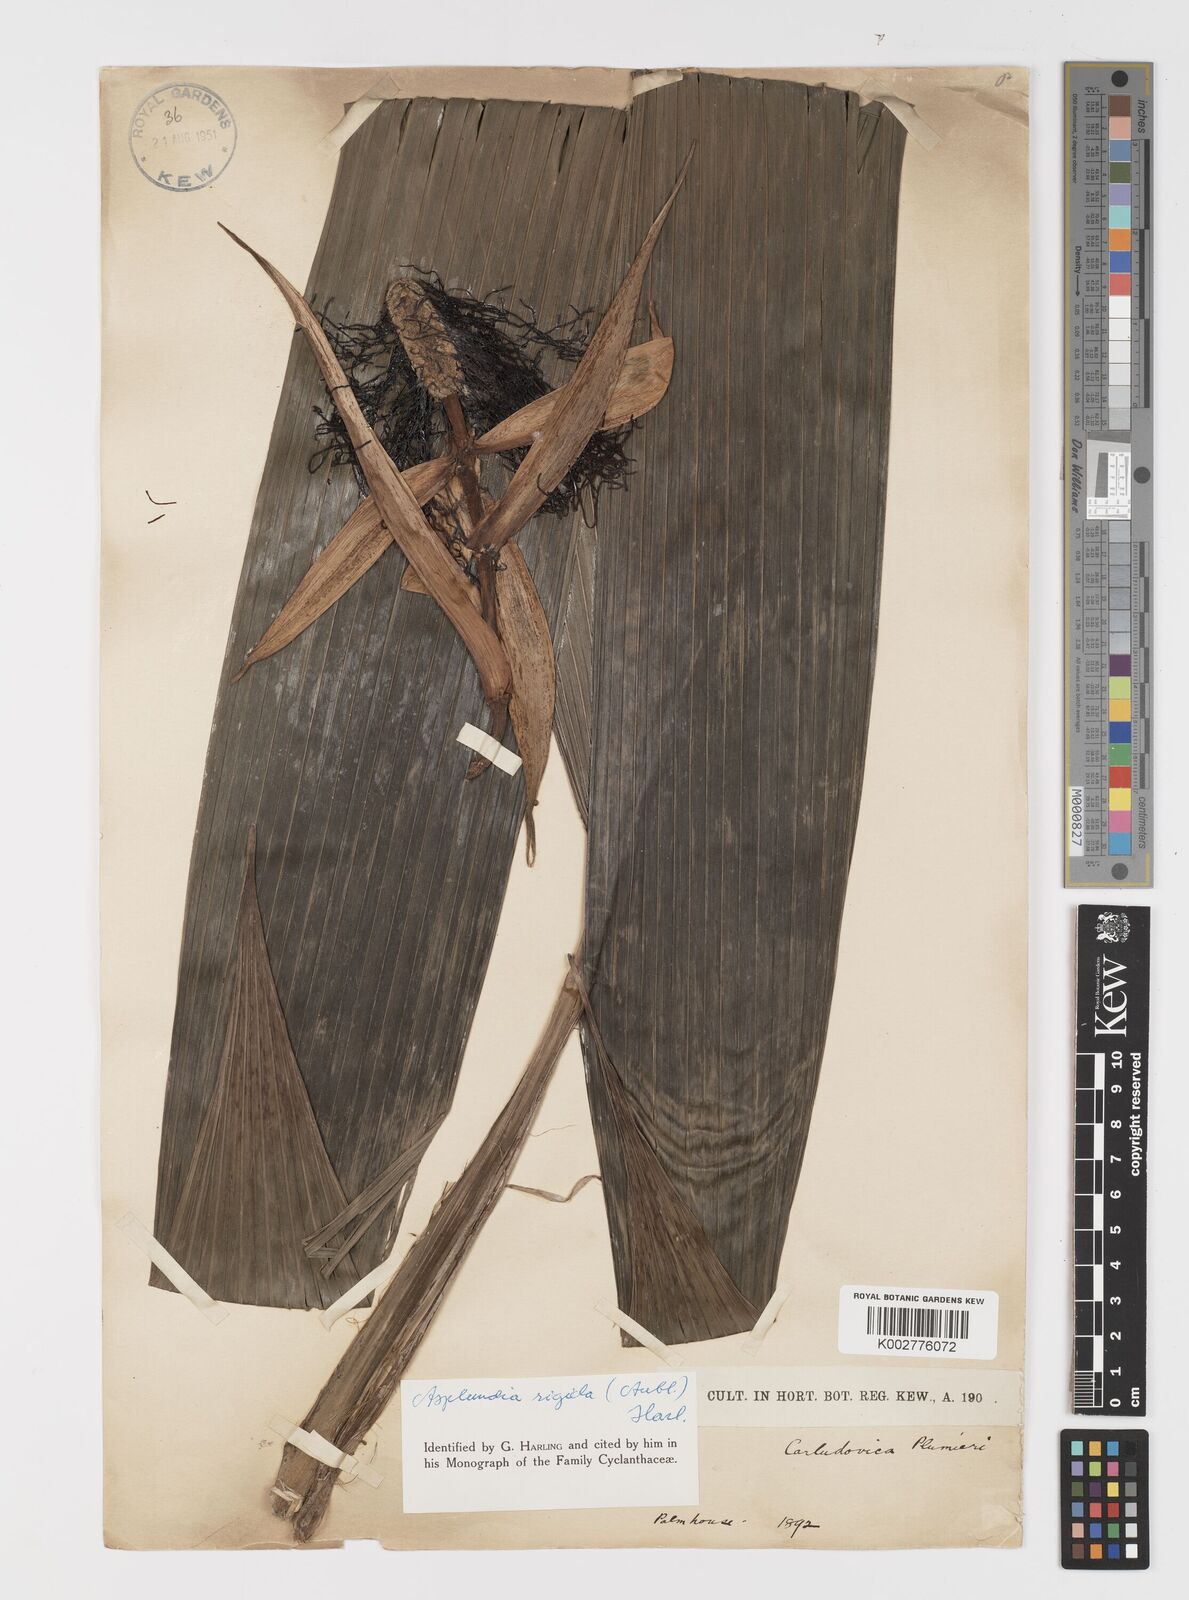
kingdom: Plantae
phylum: Tracheophyta
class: Liliopsida
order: Pandanales
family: Cyclanthaceae
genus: Asplundia
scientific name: Asplundia rigida
